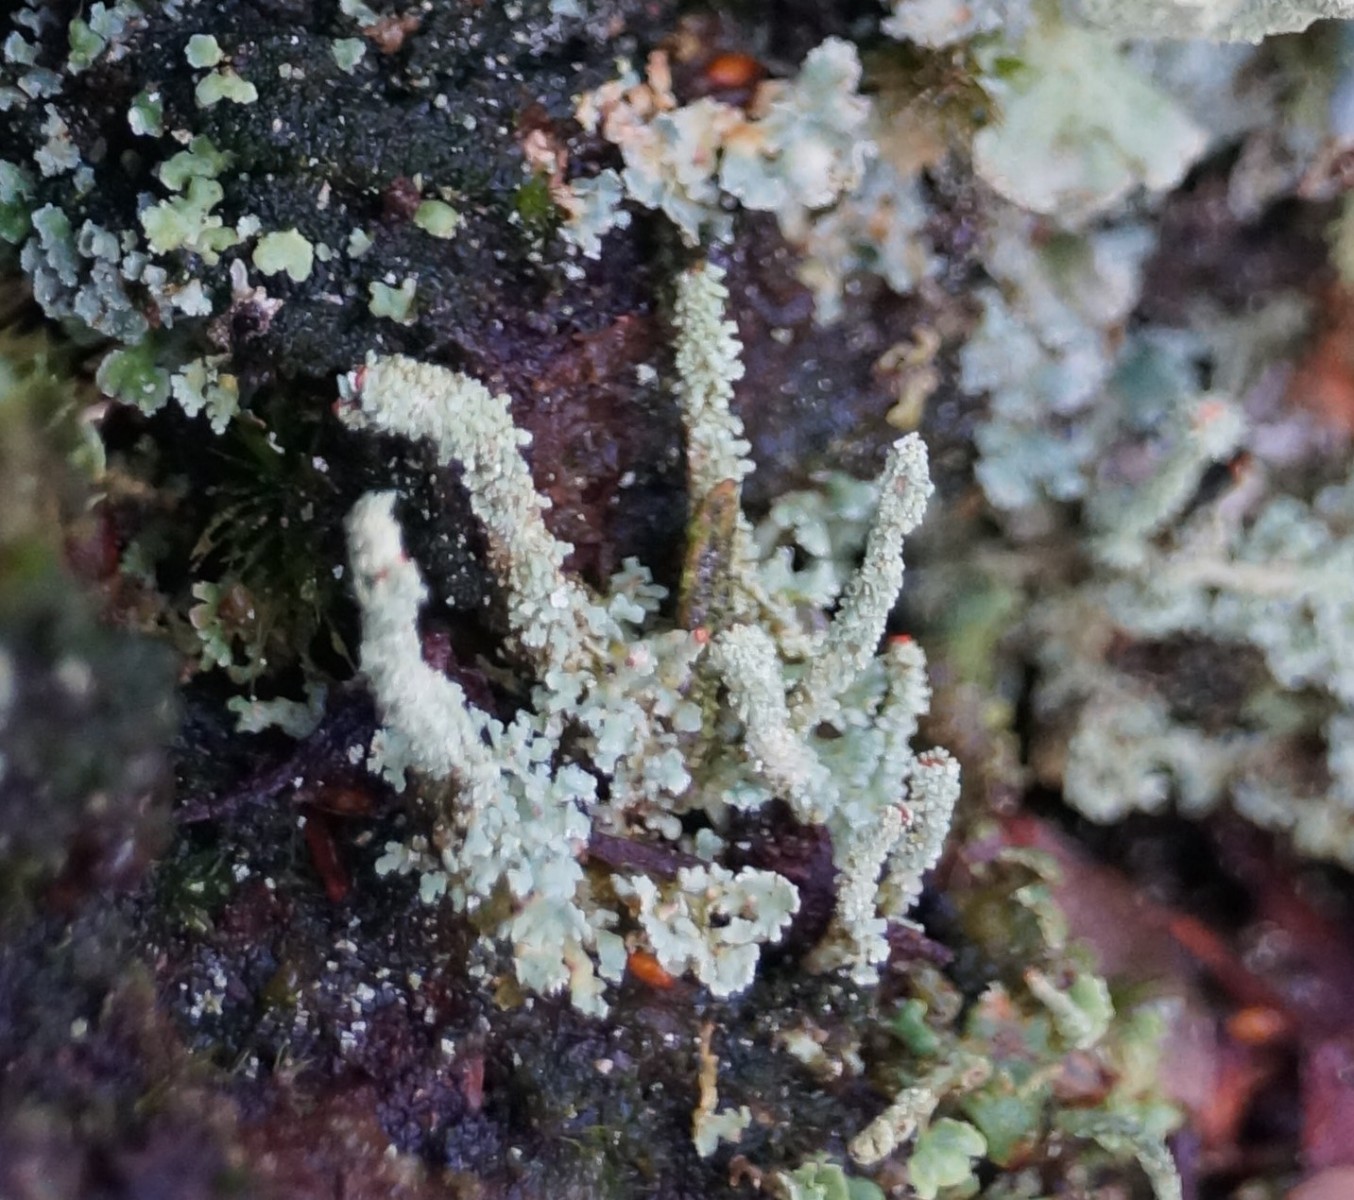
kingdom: Fungi
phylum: Ascomycota
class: Lecanoromycetes
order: Lecanorales
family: Cladoniaceae
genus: Cladonia
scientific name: Cladonia polydactyla
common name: vifte-bægerlav
